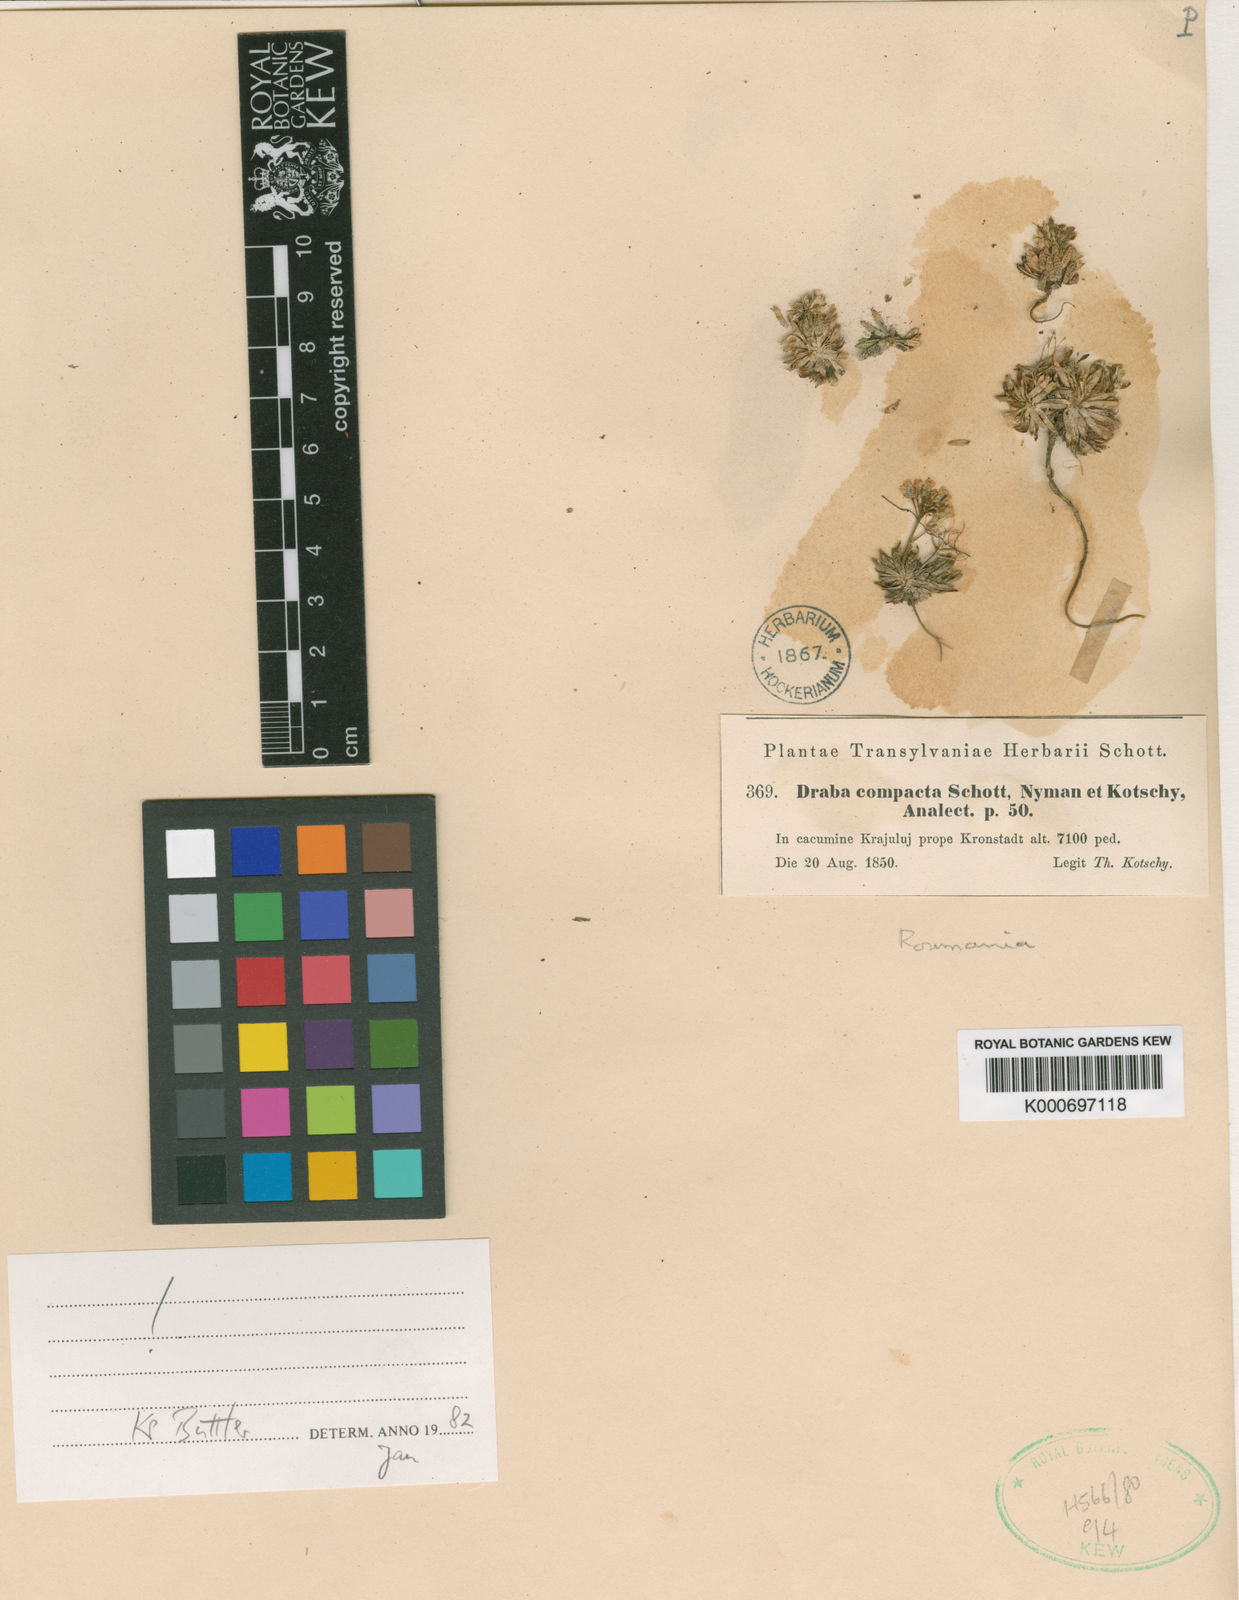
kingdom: Plantae
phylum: Tracheophyta
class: Magnoliopsida
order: Brassicales
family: Brassicaceae
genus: Draba
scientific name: Draba lasiocarpa
